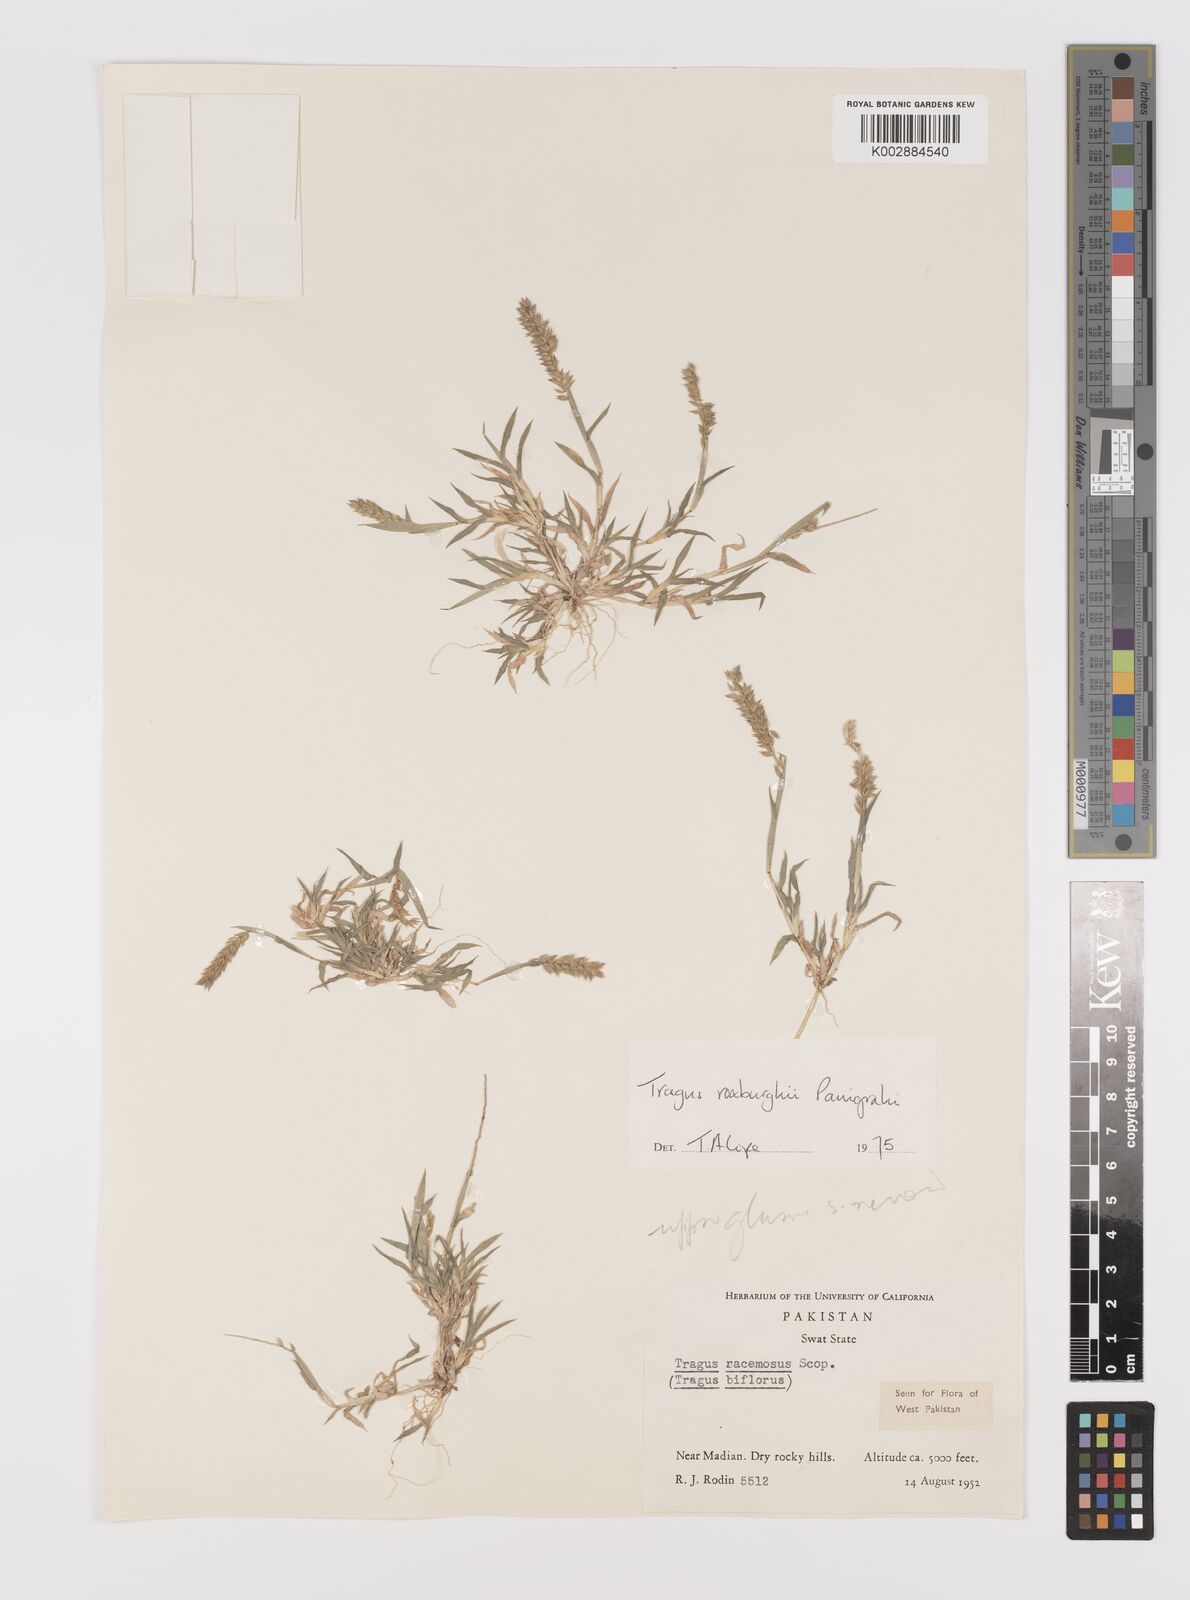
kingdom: Plantae
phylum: Tracheophyta
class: Liliopsida
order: Poales
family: Poaceae
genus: Tragus
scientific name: Tragus mongolorum
